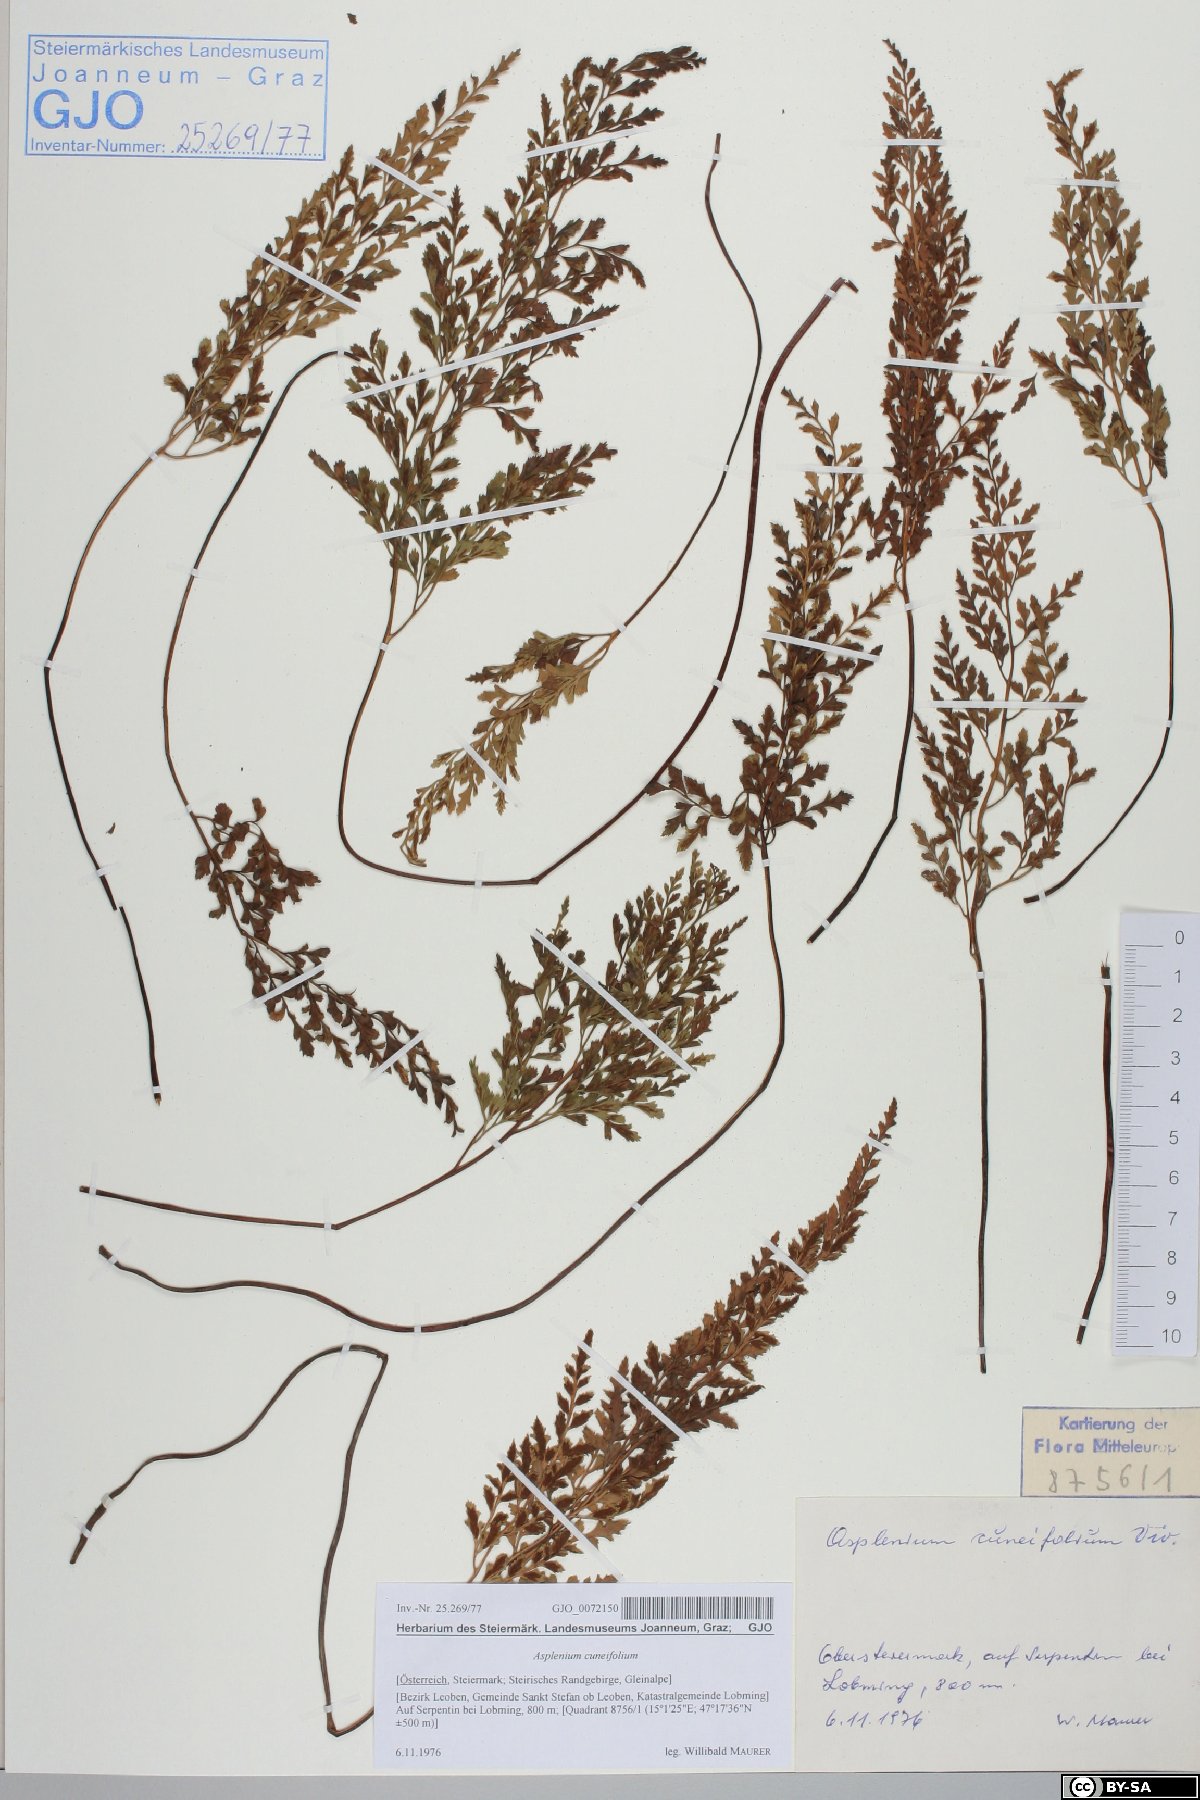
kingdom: Plantae
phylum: Tracheophyta
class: Polypodiopsida
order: Polypodiales
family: Aspleniaceae
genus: Asplenium
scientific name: Asplenium cuneifolium
